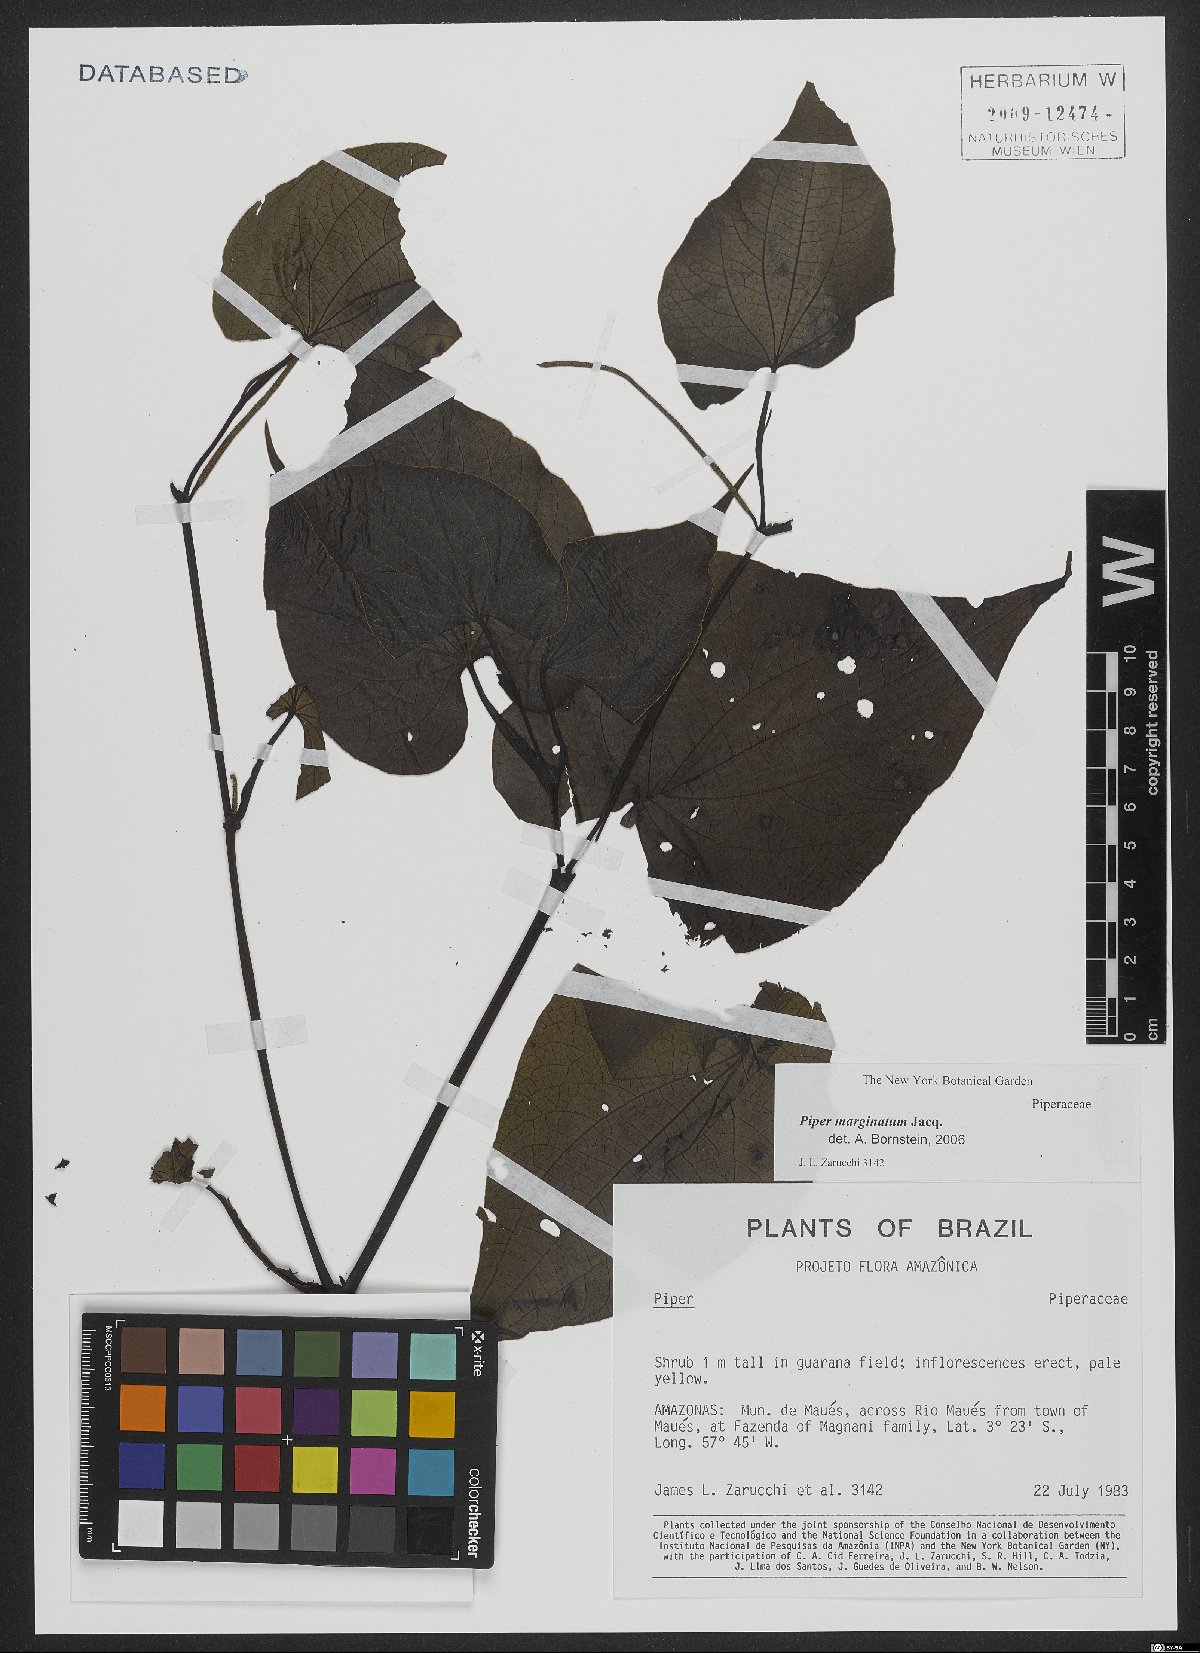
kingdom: Plantae
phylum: Tracheophyta
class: Magnoliopsida
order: Piperales
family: Piperaceae
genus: Piper
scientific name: Piper marginatum
